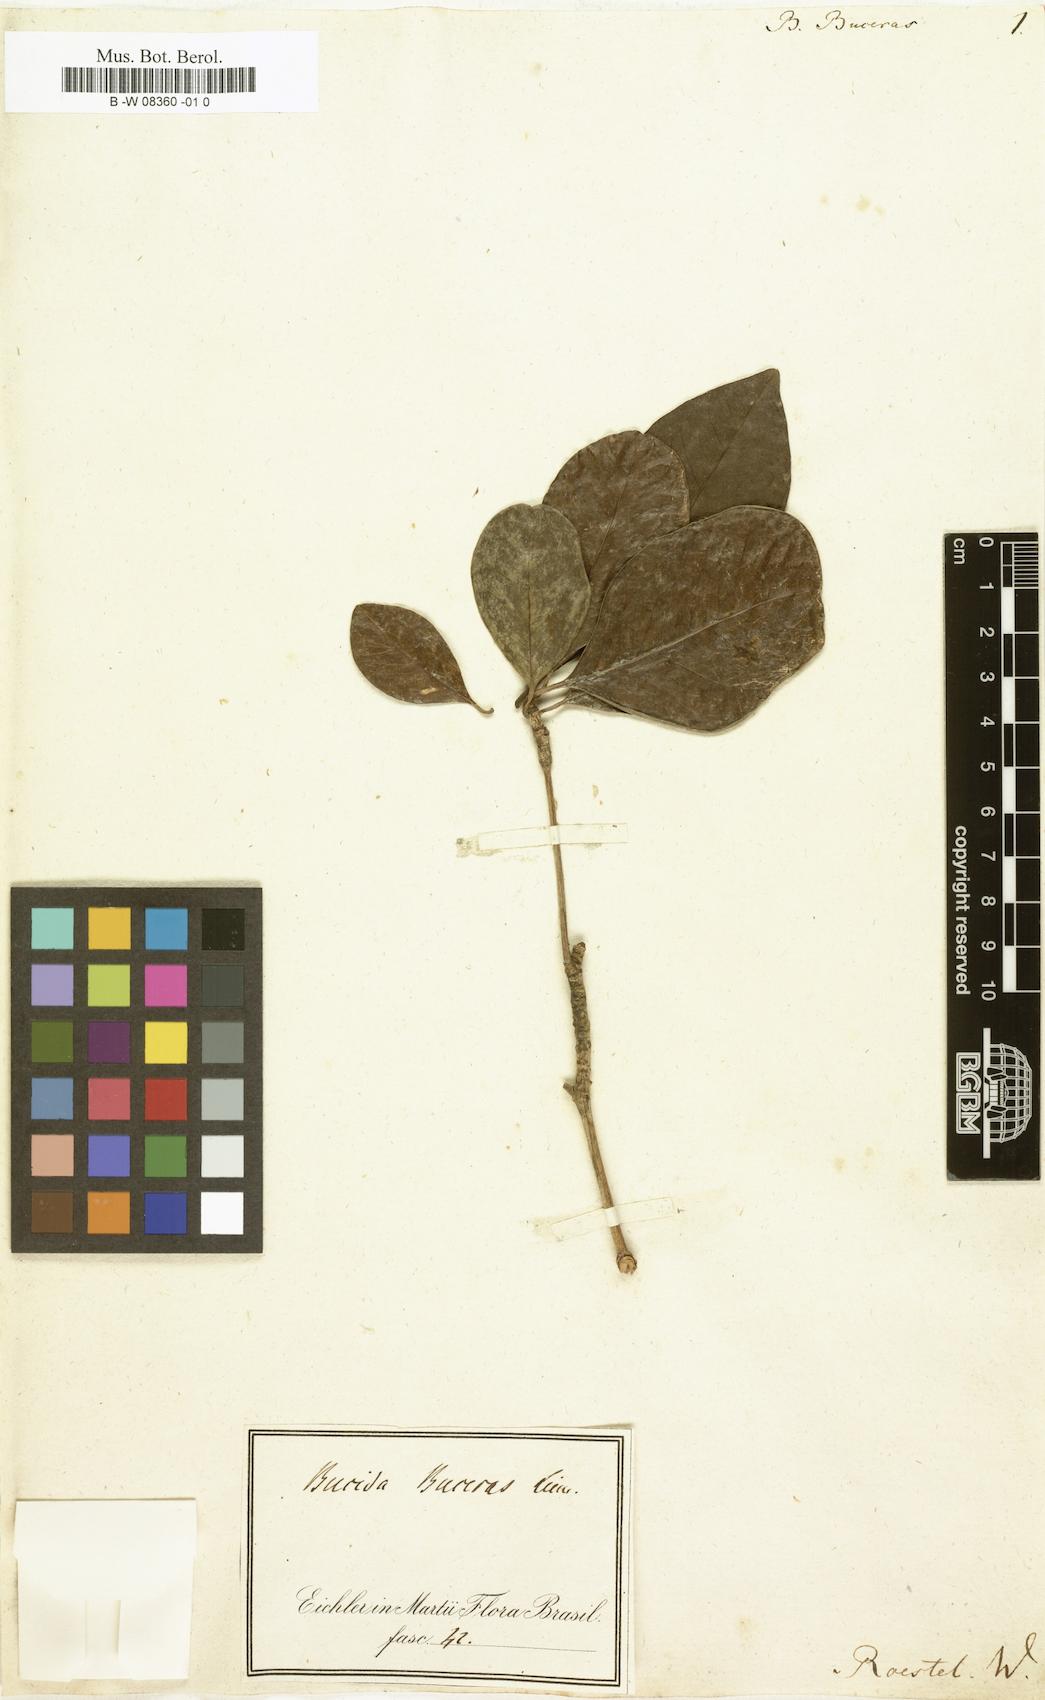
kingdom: Plantae
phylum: Tracheophyta
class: Magnoliopsida
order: Myrtales
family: Combretaceae
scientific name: Combretaceae
